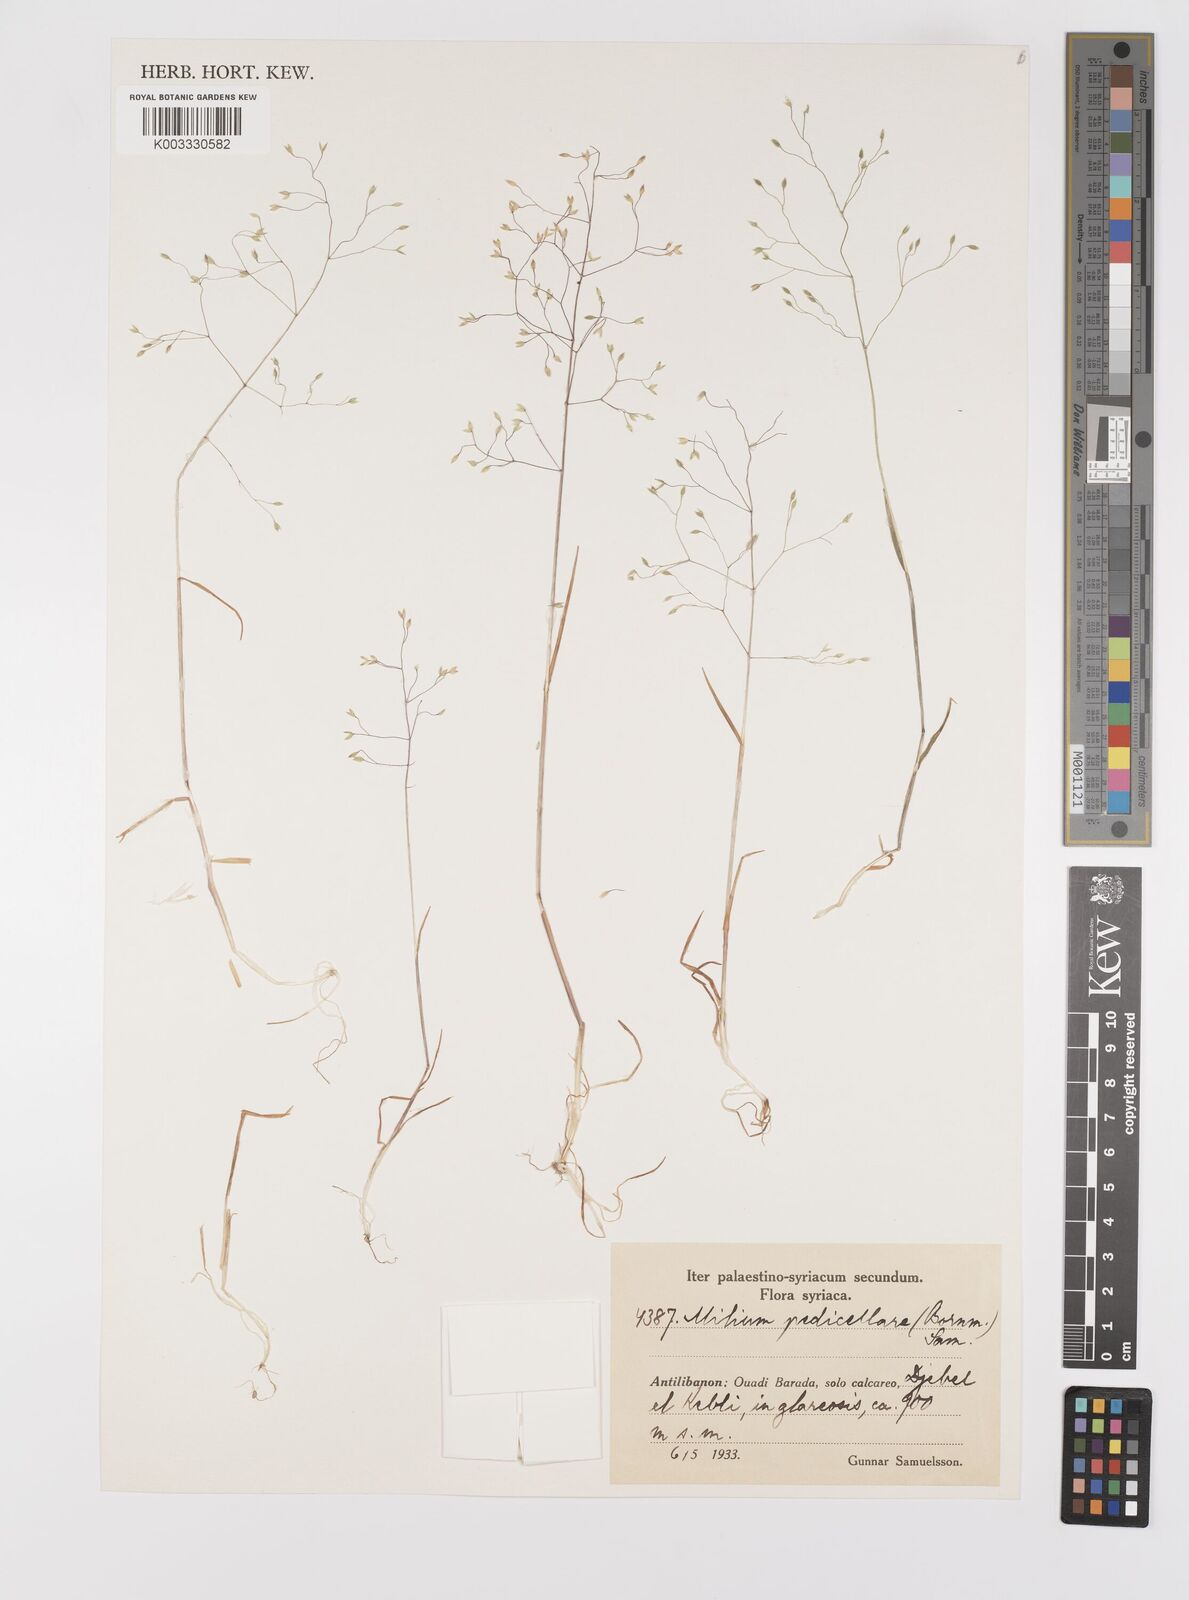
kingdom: Plantae
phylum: Tracheophyta
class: Liliopsida
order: Poales
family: Poaceae
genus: Milium
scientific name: Milium pedicellare
